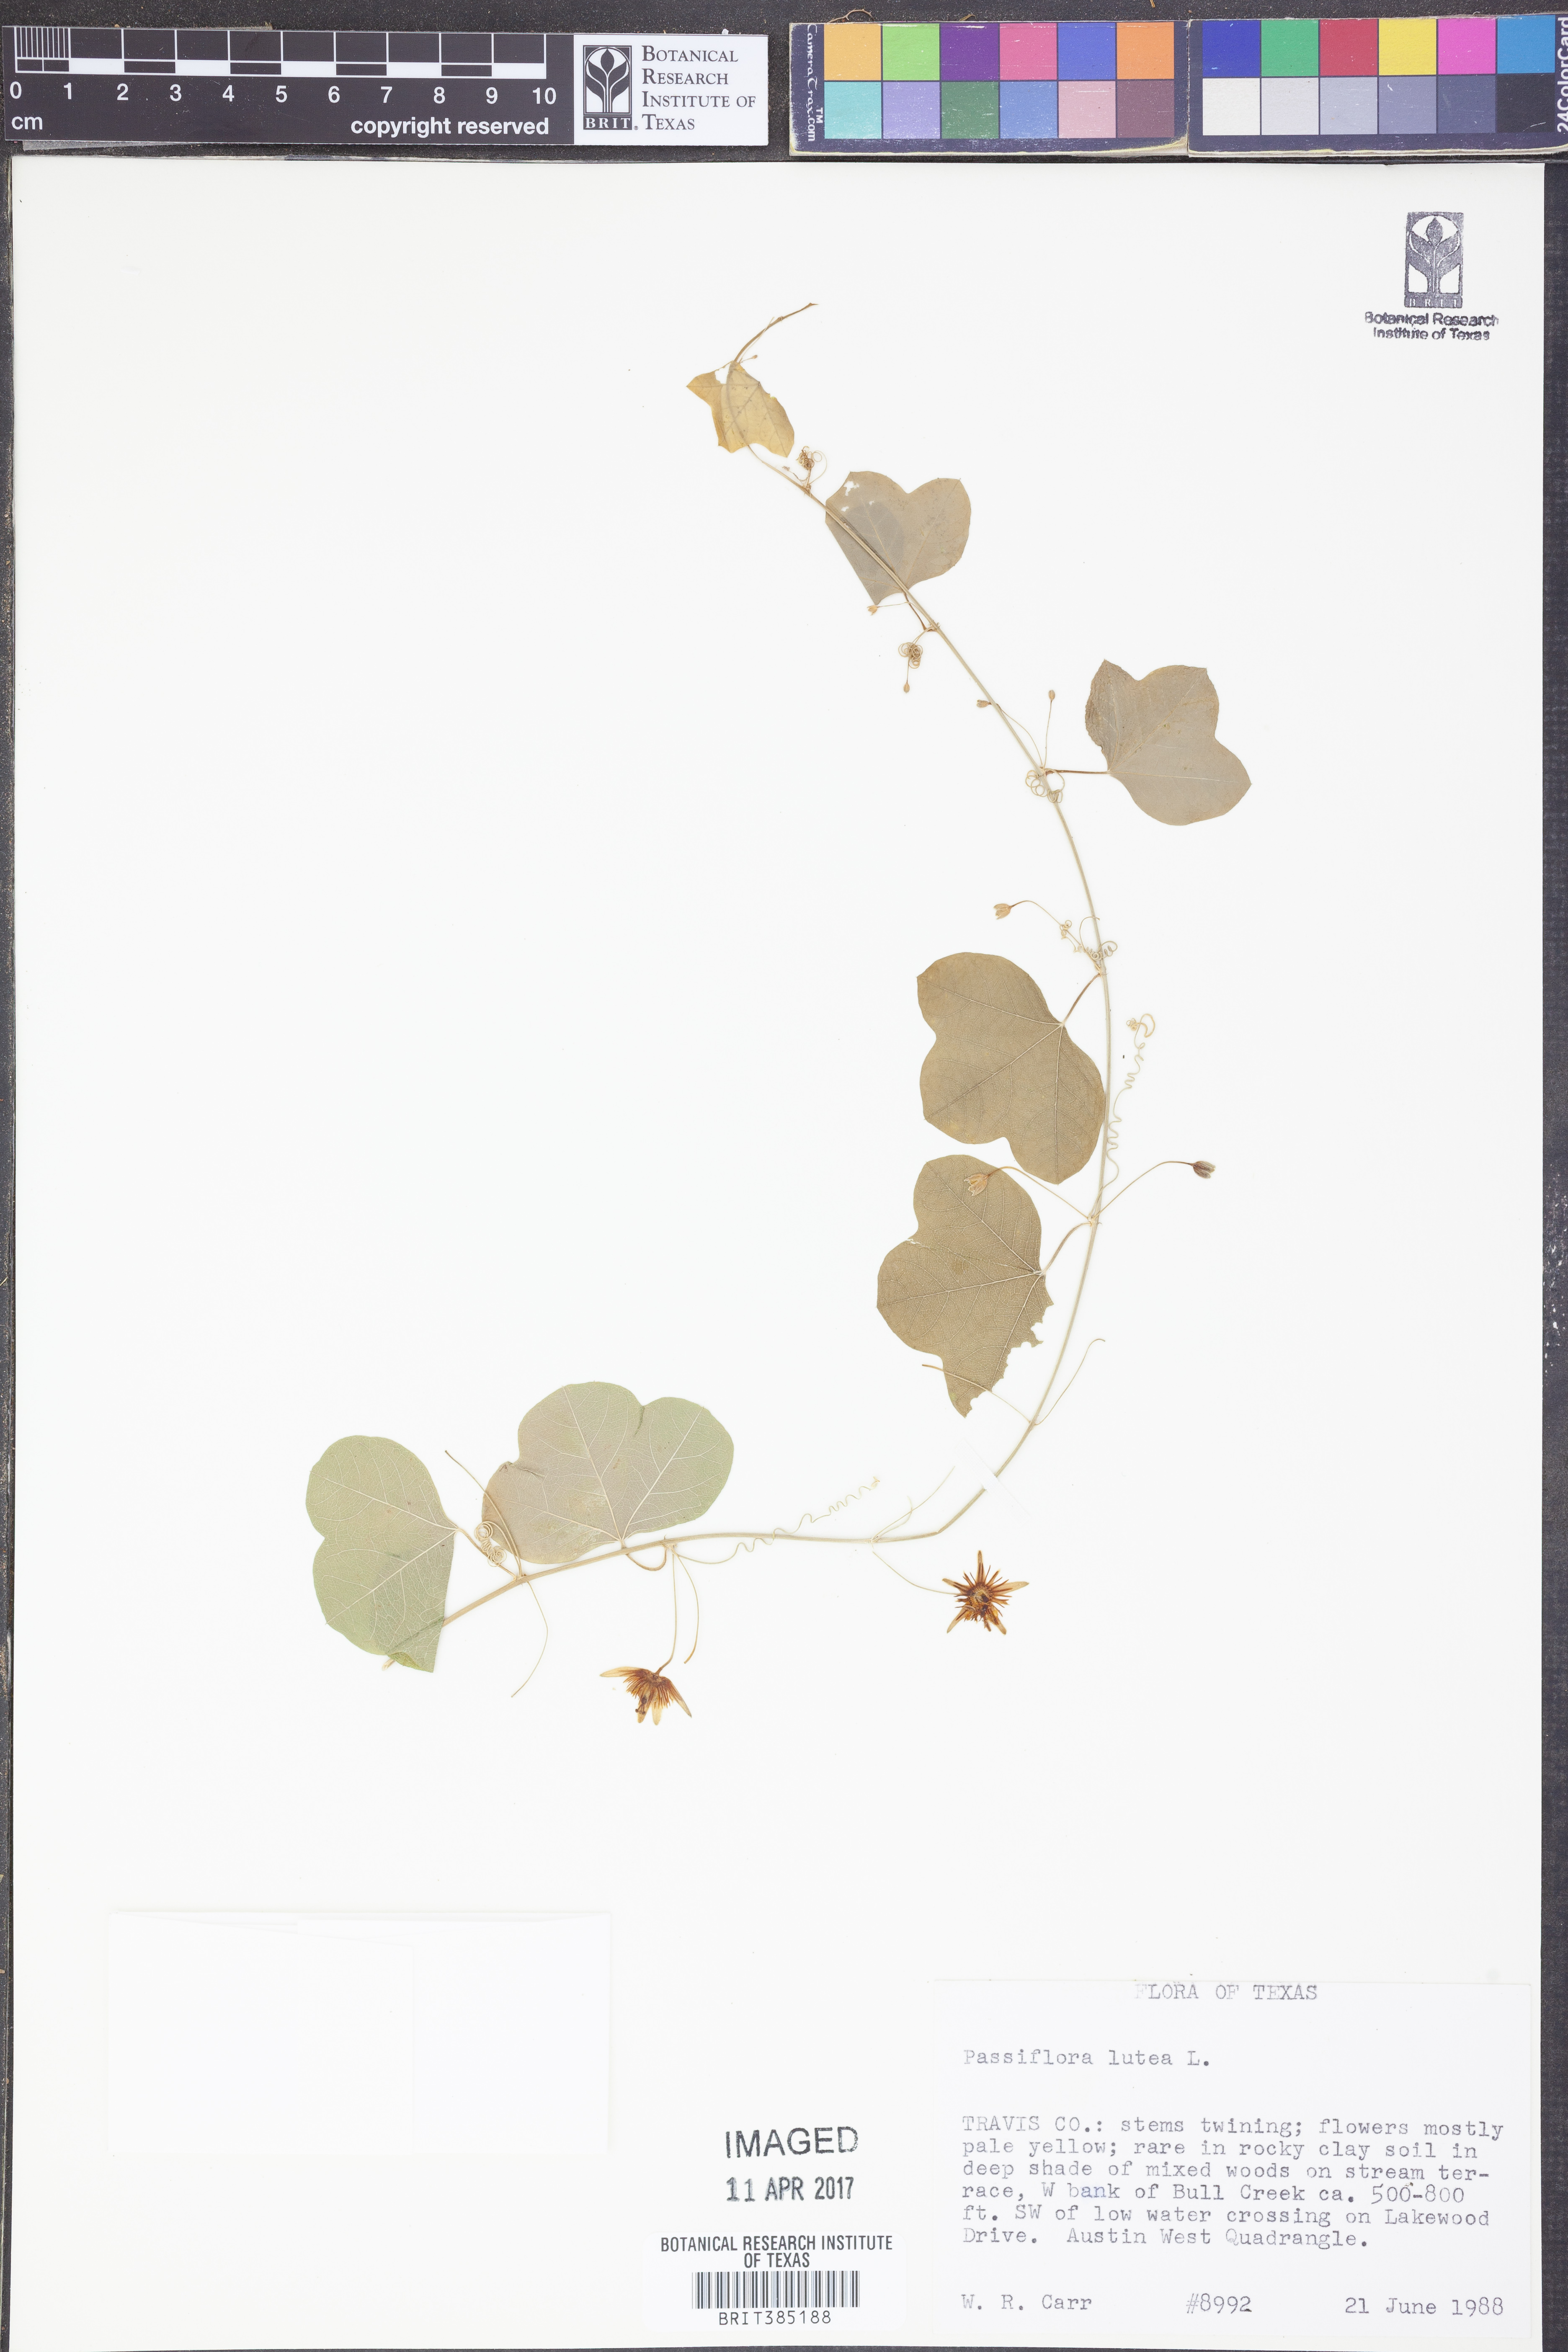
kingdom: Plantae
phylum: Tracheophyta
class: Magnoliopsida
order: Malpighiales
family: Passifloraceae
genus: Passiflora
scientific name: Passiflora lutea
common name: Yellow passionflower
